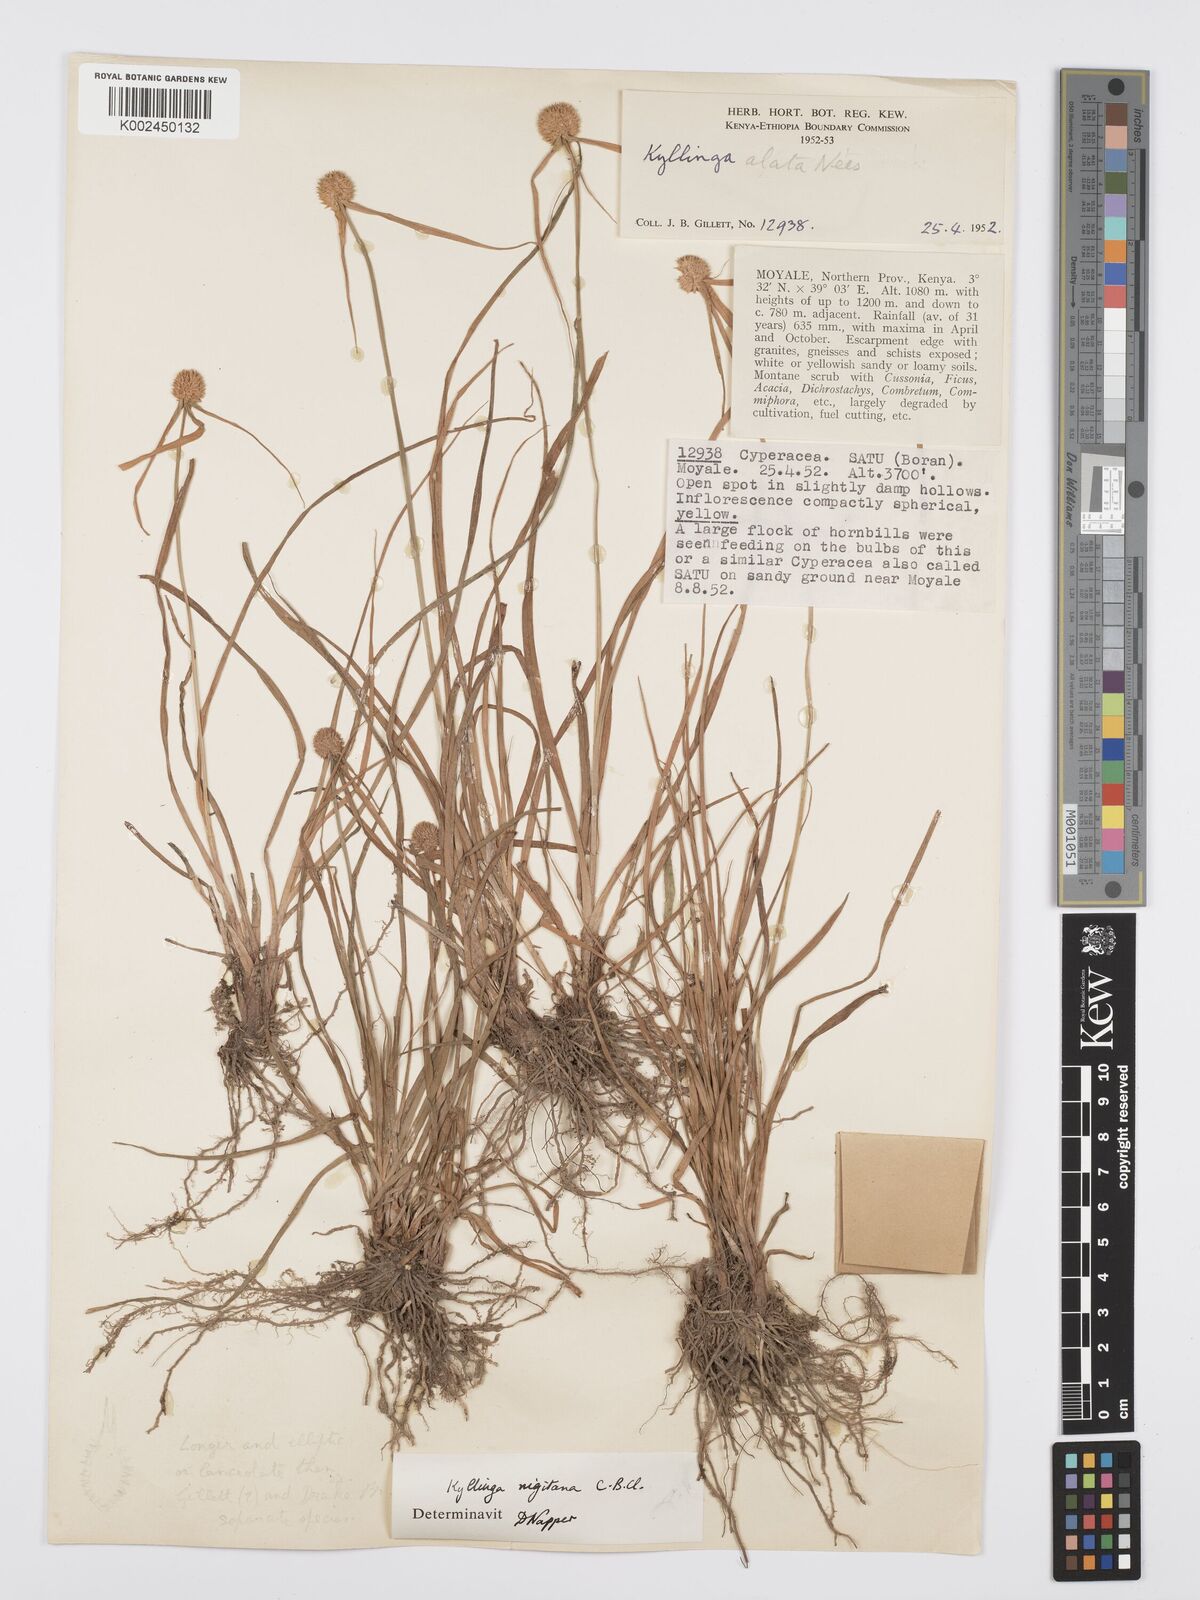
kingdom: Plantae
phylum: Tracheophyta
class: Liliopsida
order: Poales
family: Cyperaceae
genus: Cyperus
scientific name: Cyperus alatus
